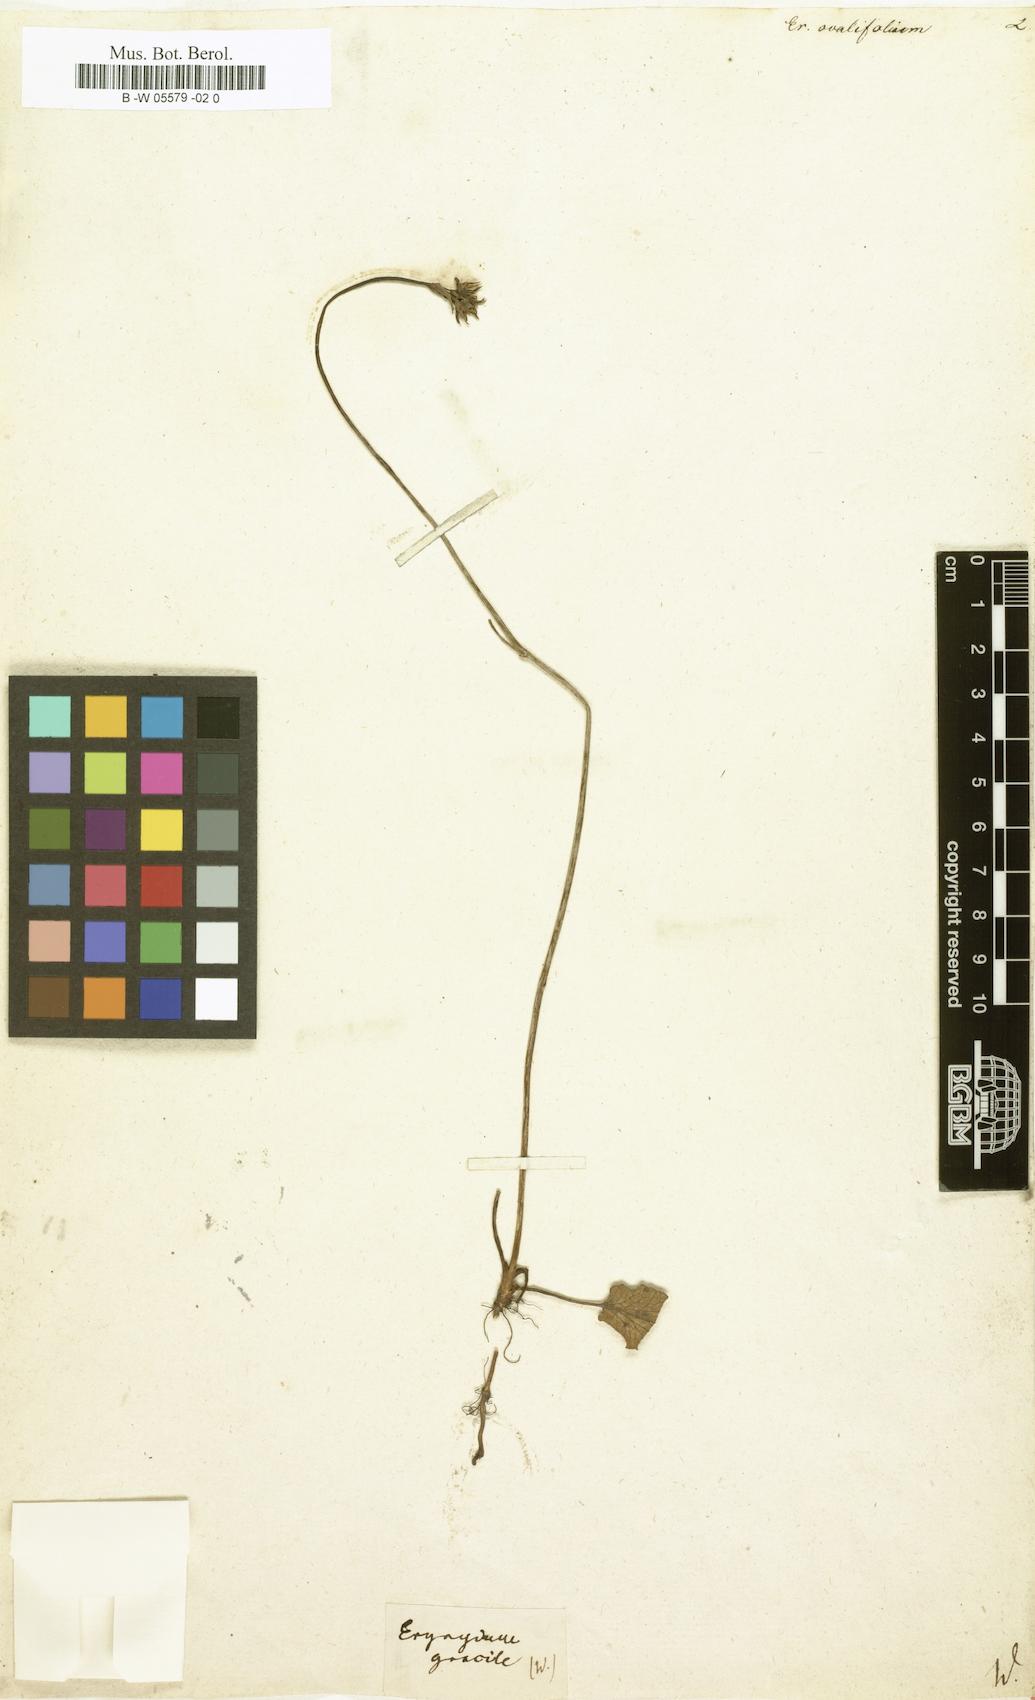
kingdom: Plantae
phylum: Tracheophyta
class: Magnoliopsida
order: Apiales
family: Apiaceae
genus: Eryngium
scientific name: Eryngium integrifolium
